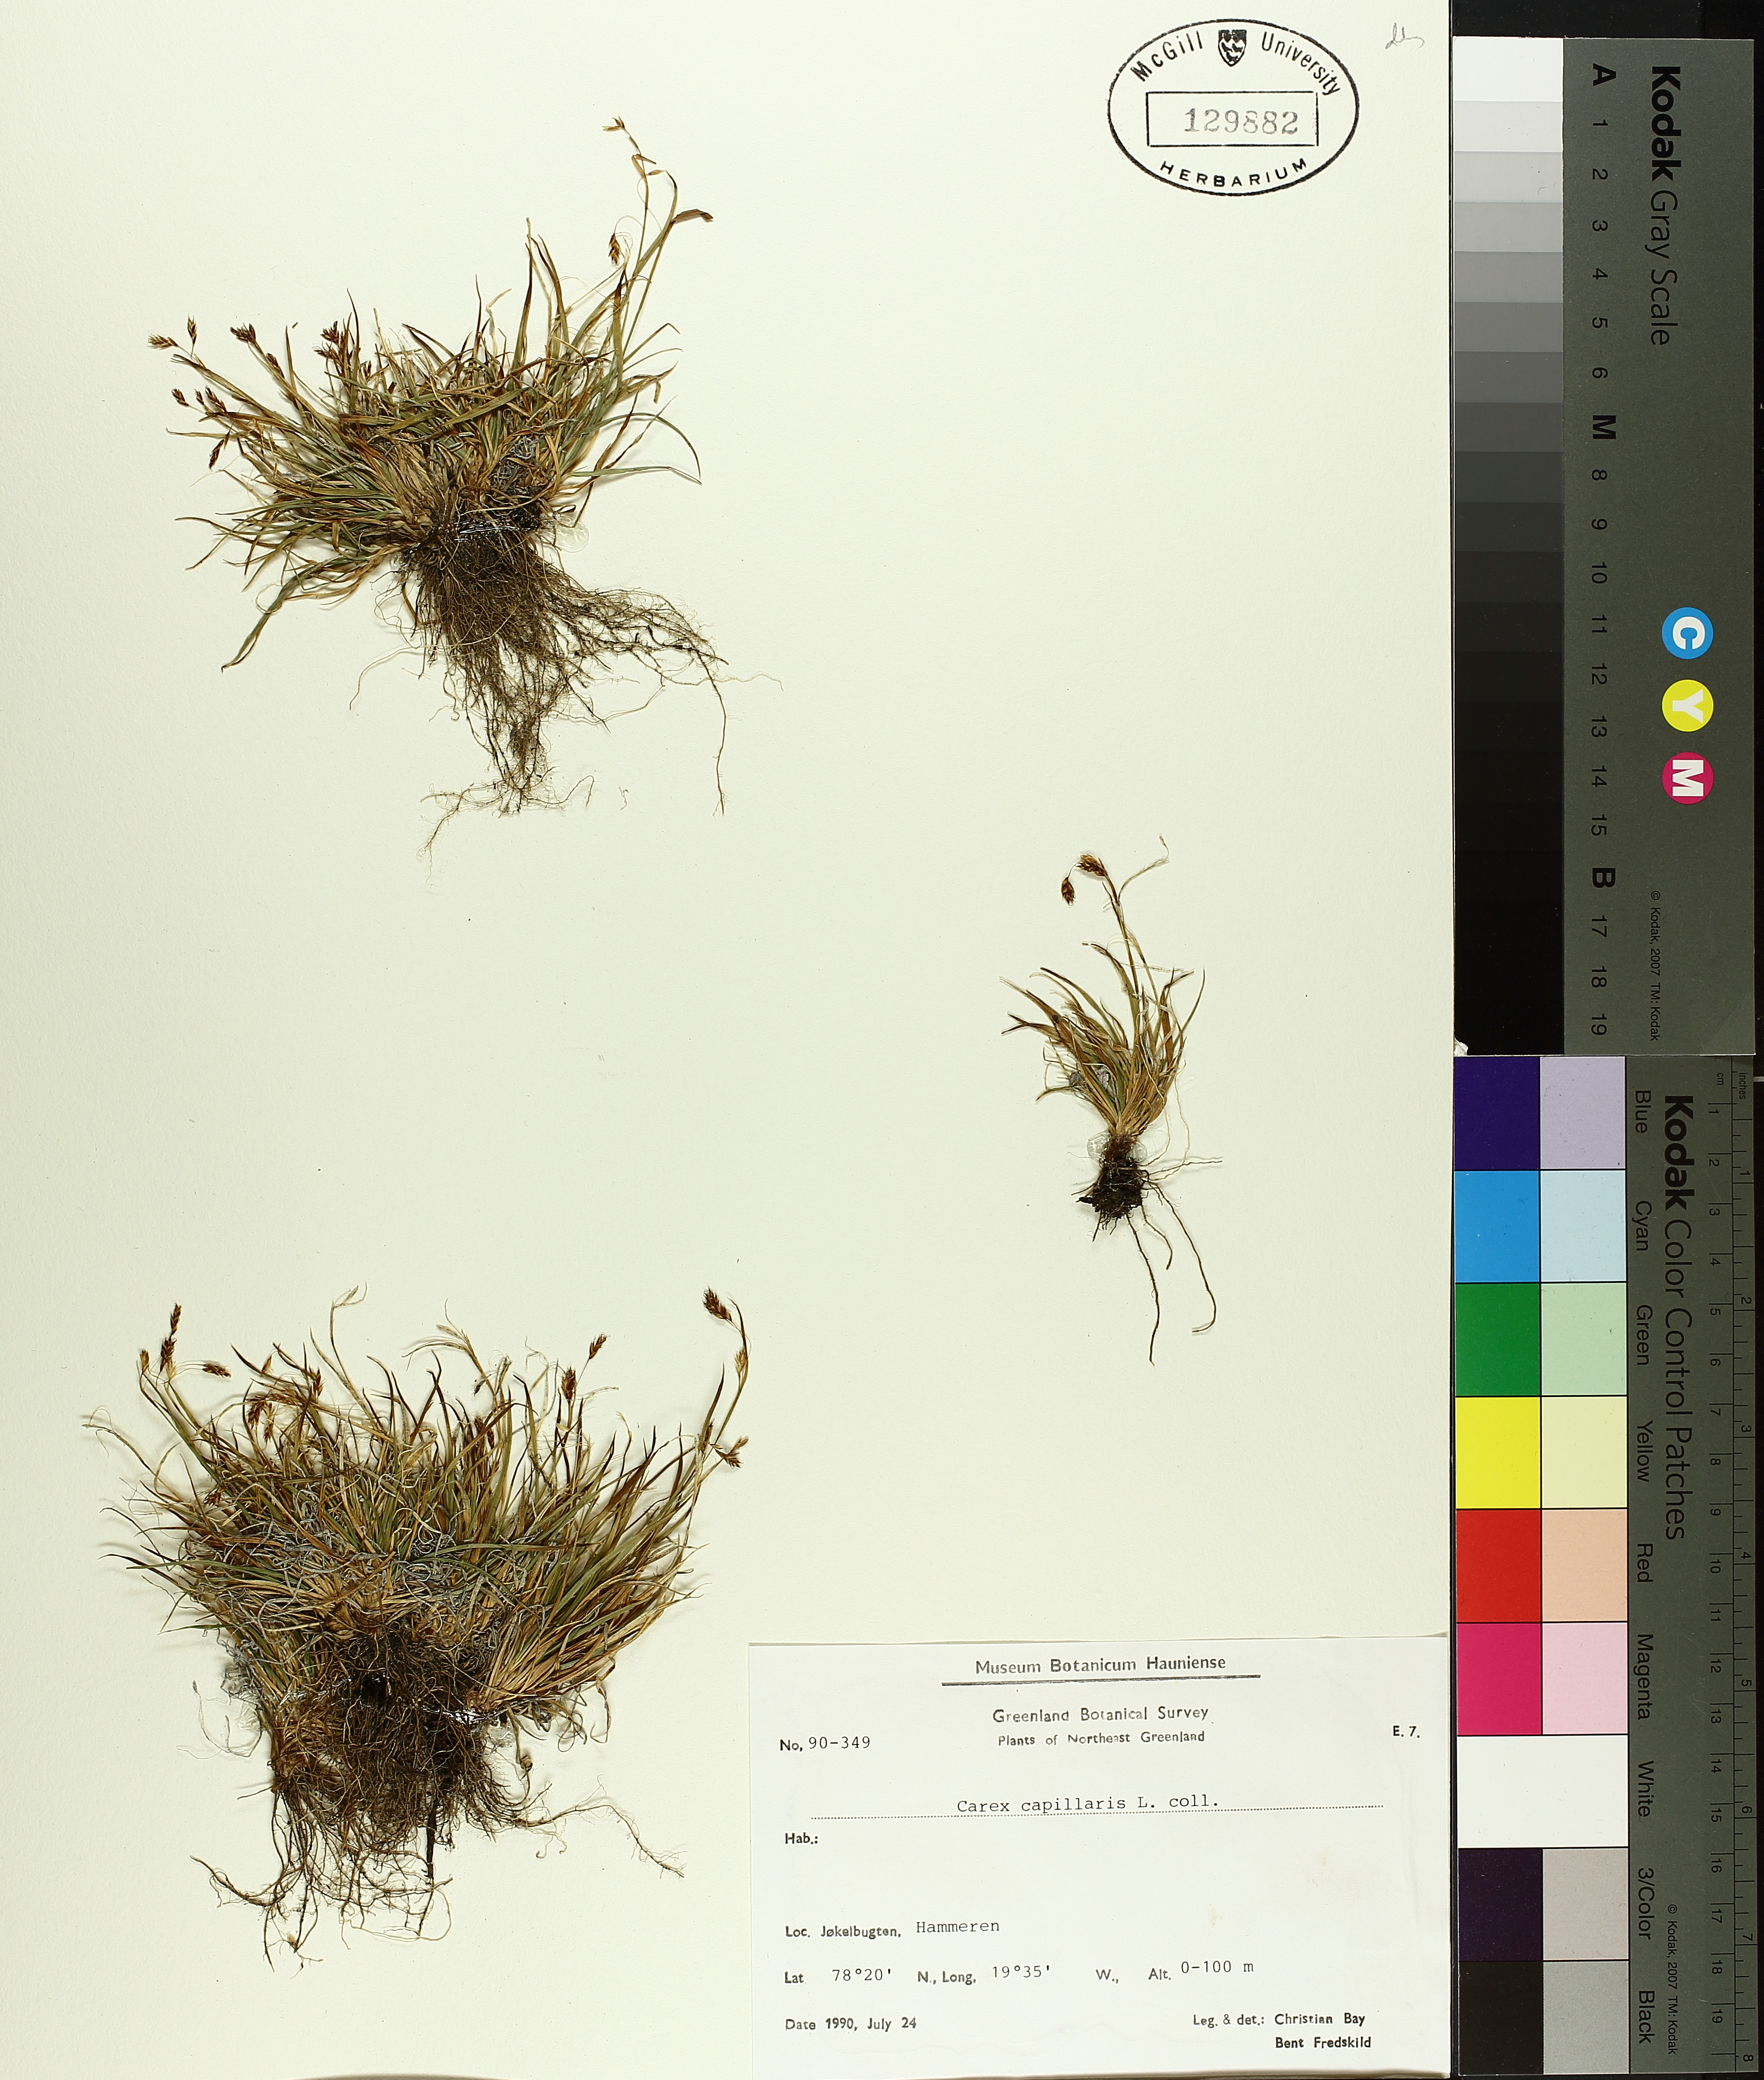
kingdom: Plantae
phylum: Tracheophyta
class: Liliopsida
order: Poales
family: Cyperaceae
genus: Carex
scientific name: Carex capillaris
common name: Hair sedge
